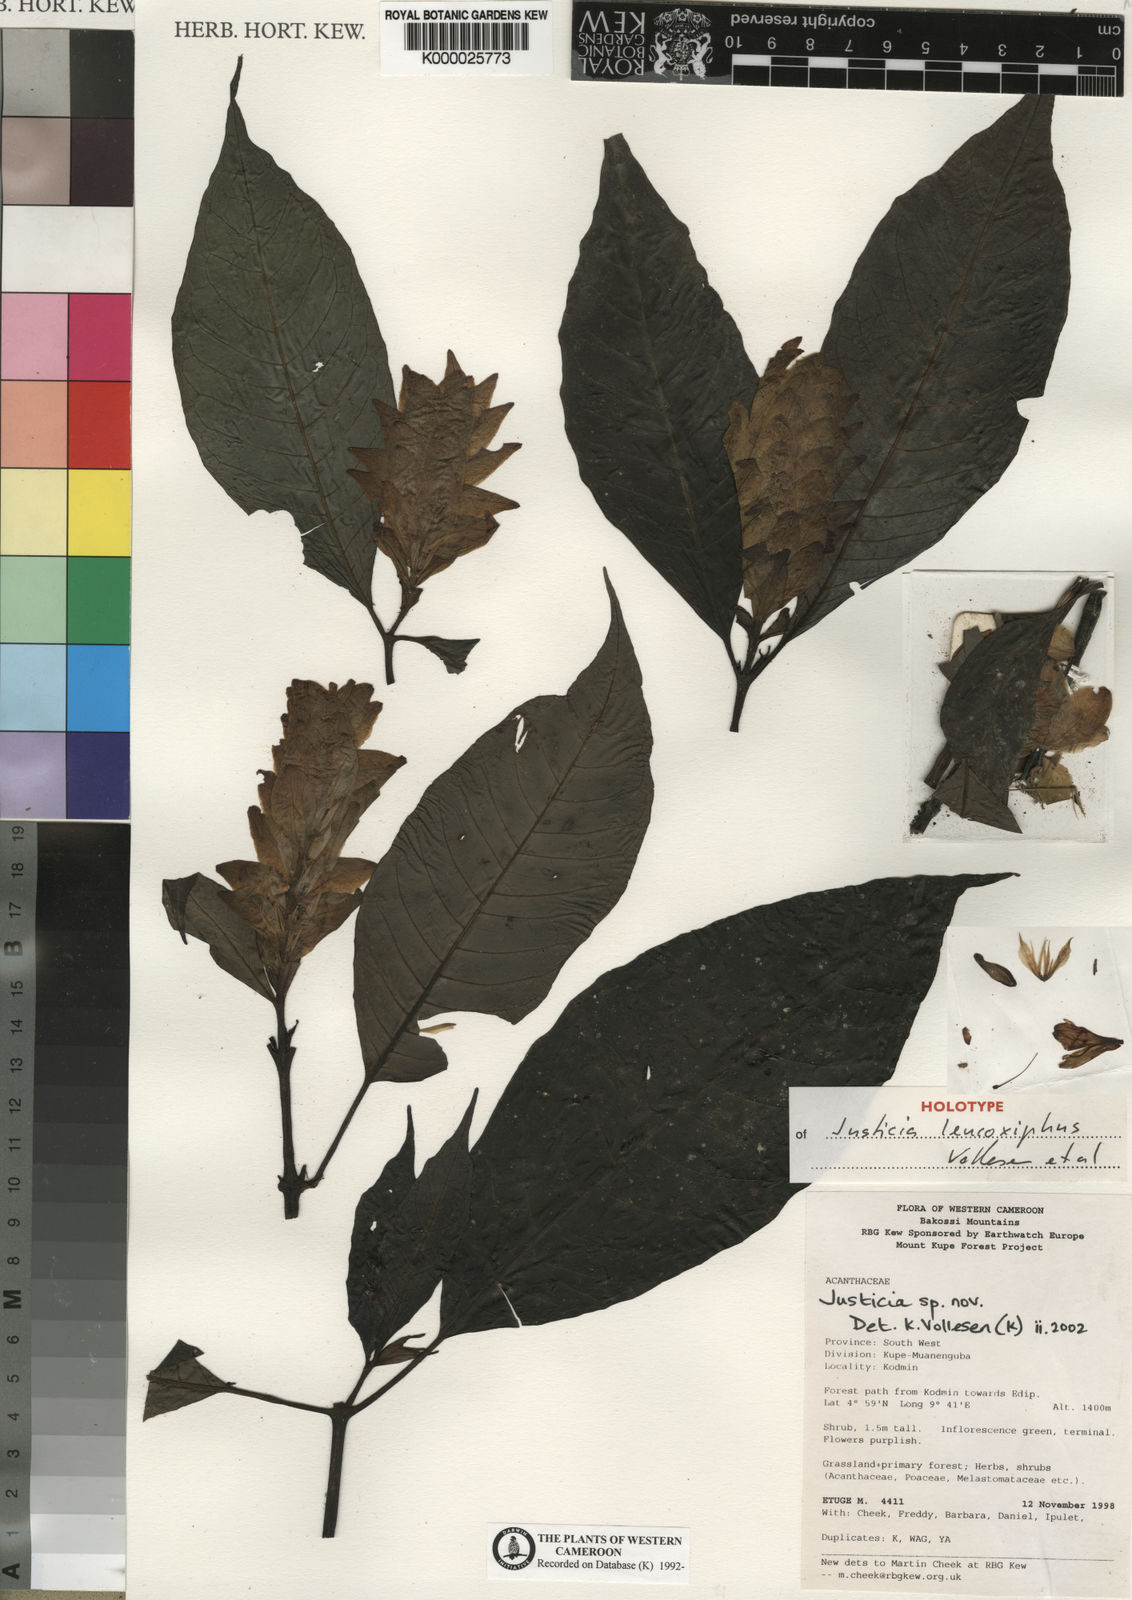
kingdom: Plantae
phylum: Tracheophyta
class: Magnoliopsida
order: Lamiales
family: Acanthaceae
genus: Justicia
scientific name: Justicia leucoxiphus
